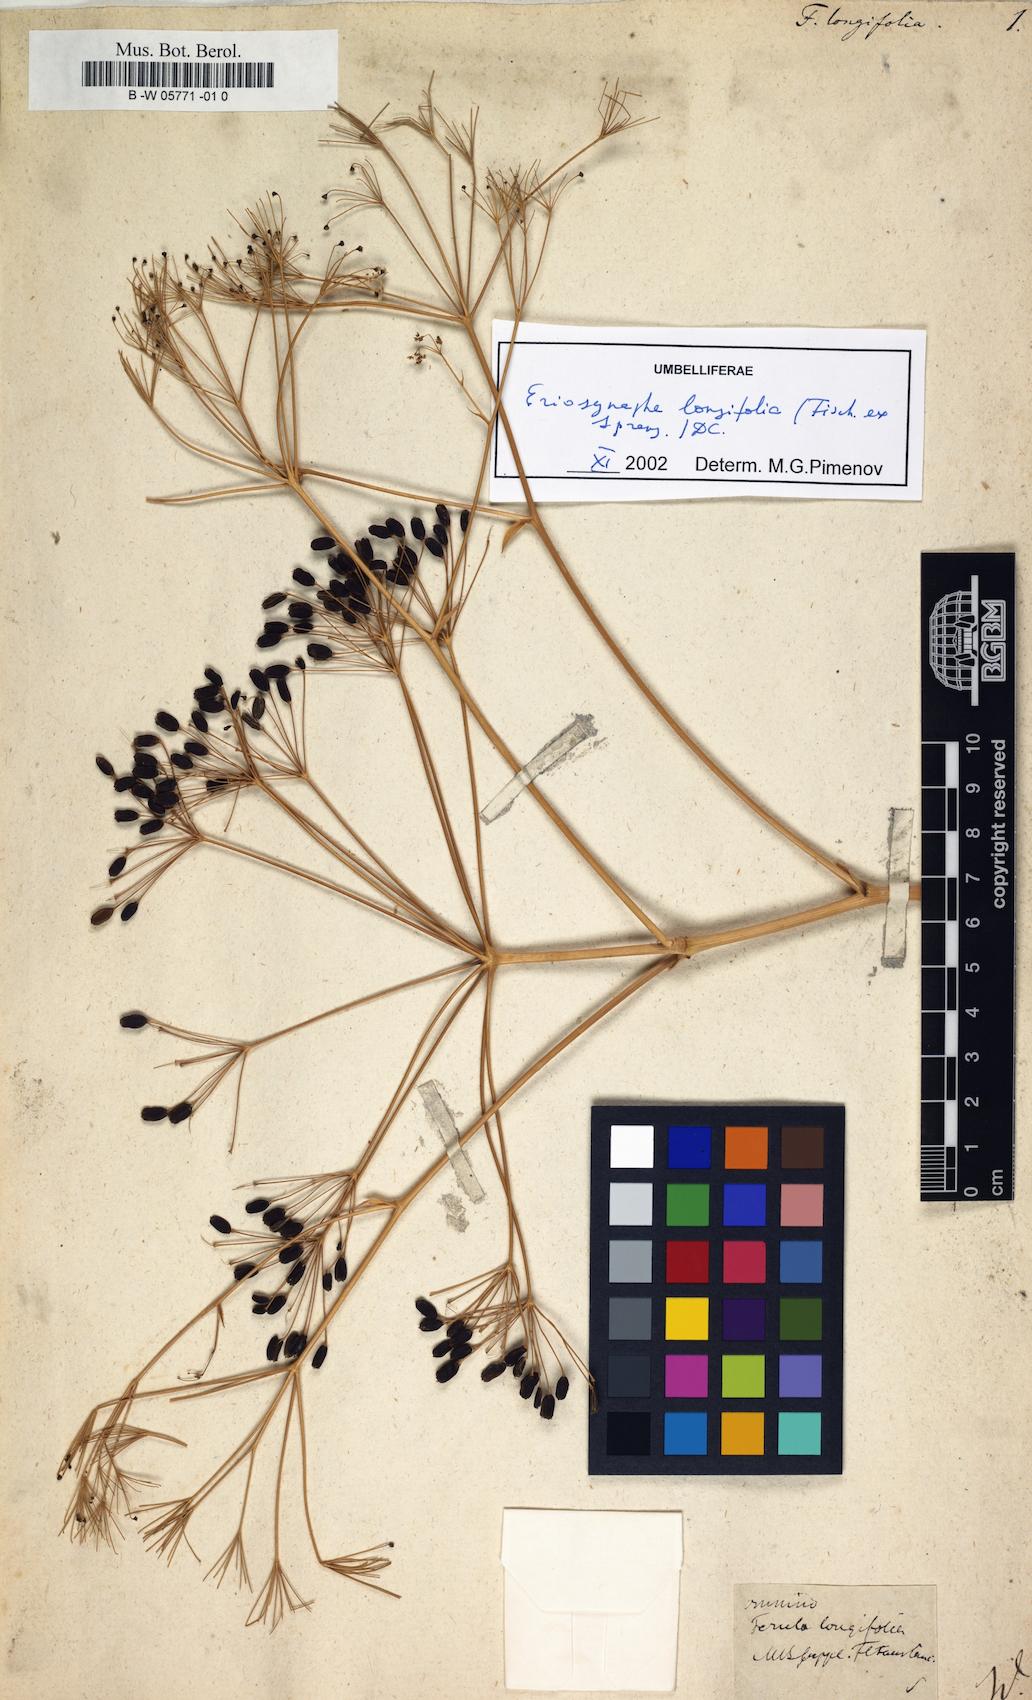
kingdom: Plantae
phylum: Tracheophyta
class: Magnoliopsida
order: Apiales
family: Apiaceae
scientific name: Apiaceae
